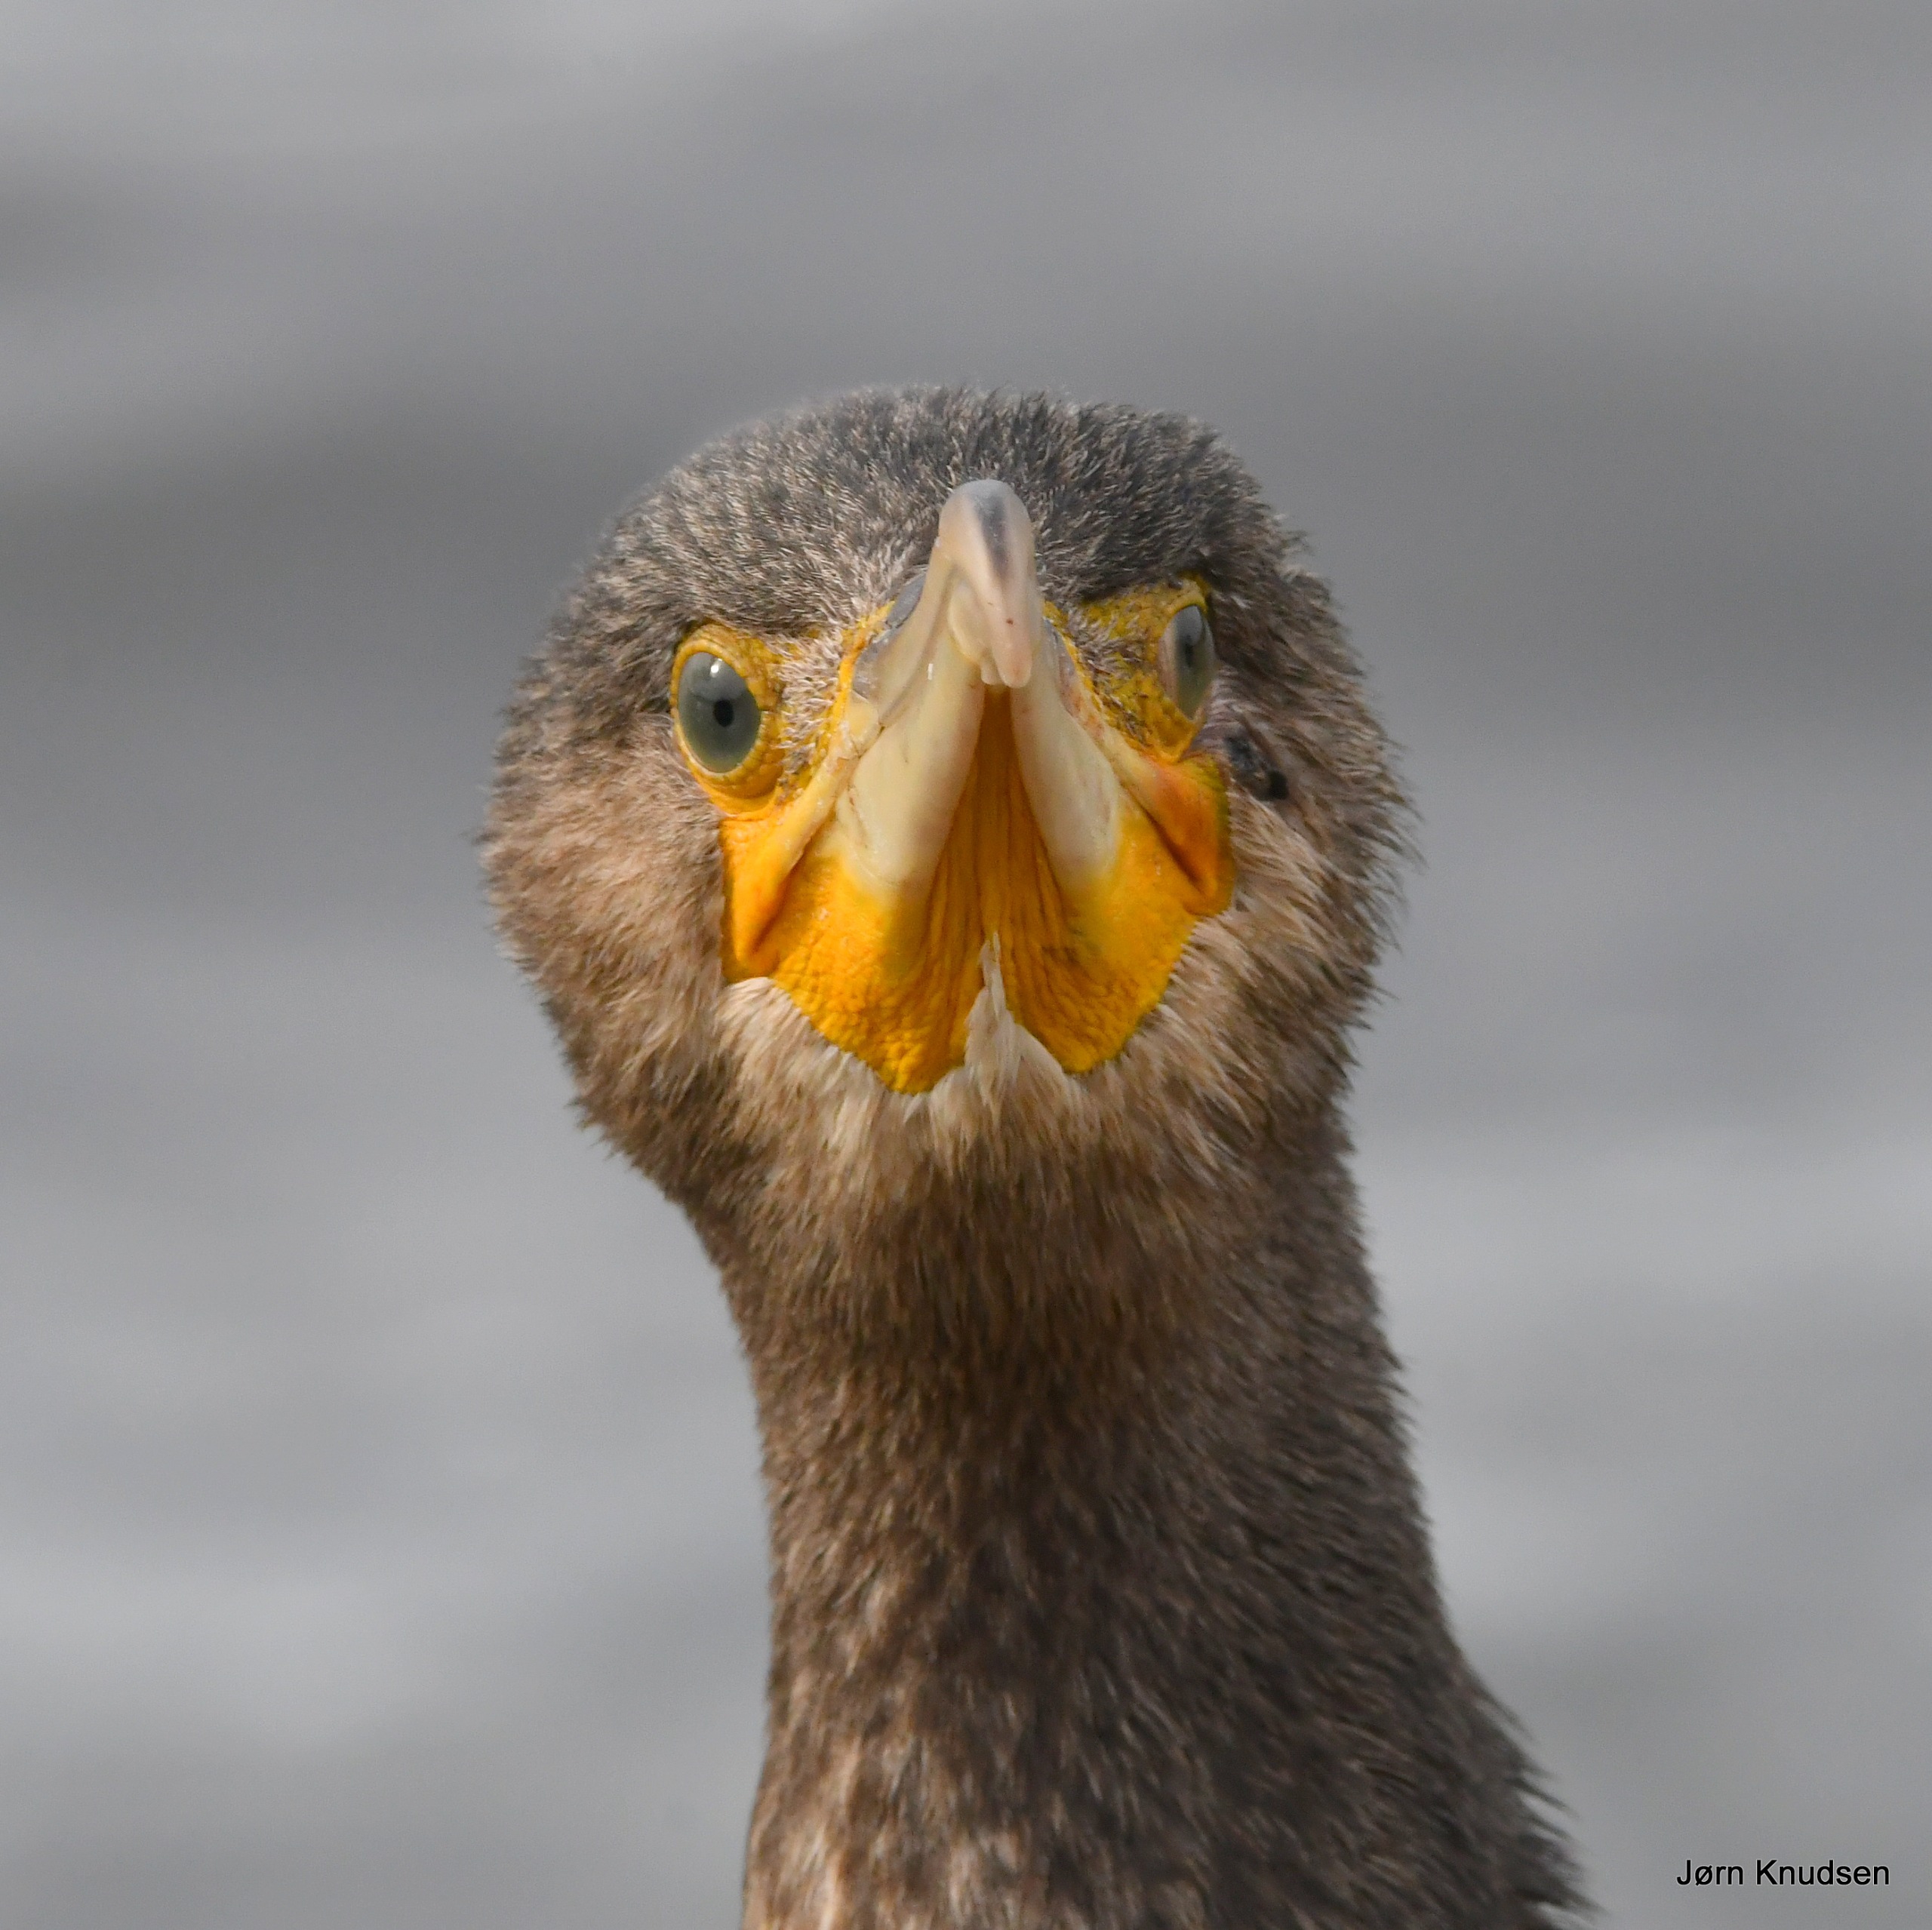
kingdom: Animalia
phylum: Chordata
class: Aves
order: Suliformes
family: Phalacrocoracidae
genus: Phalacrocorax
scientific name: Phalacrocorax carbo
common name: Skarv
